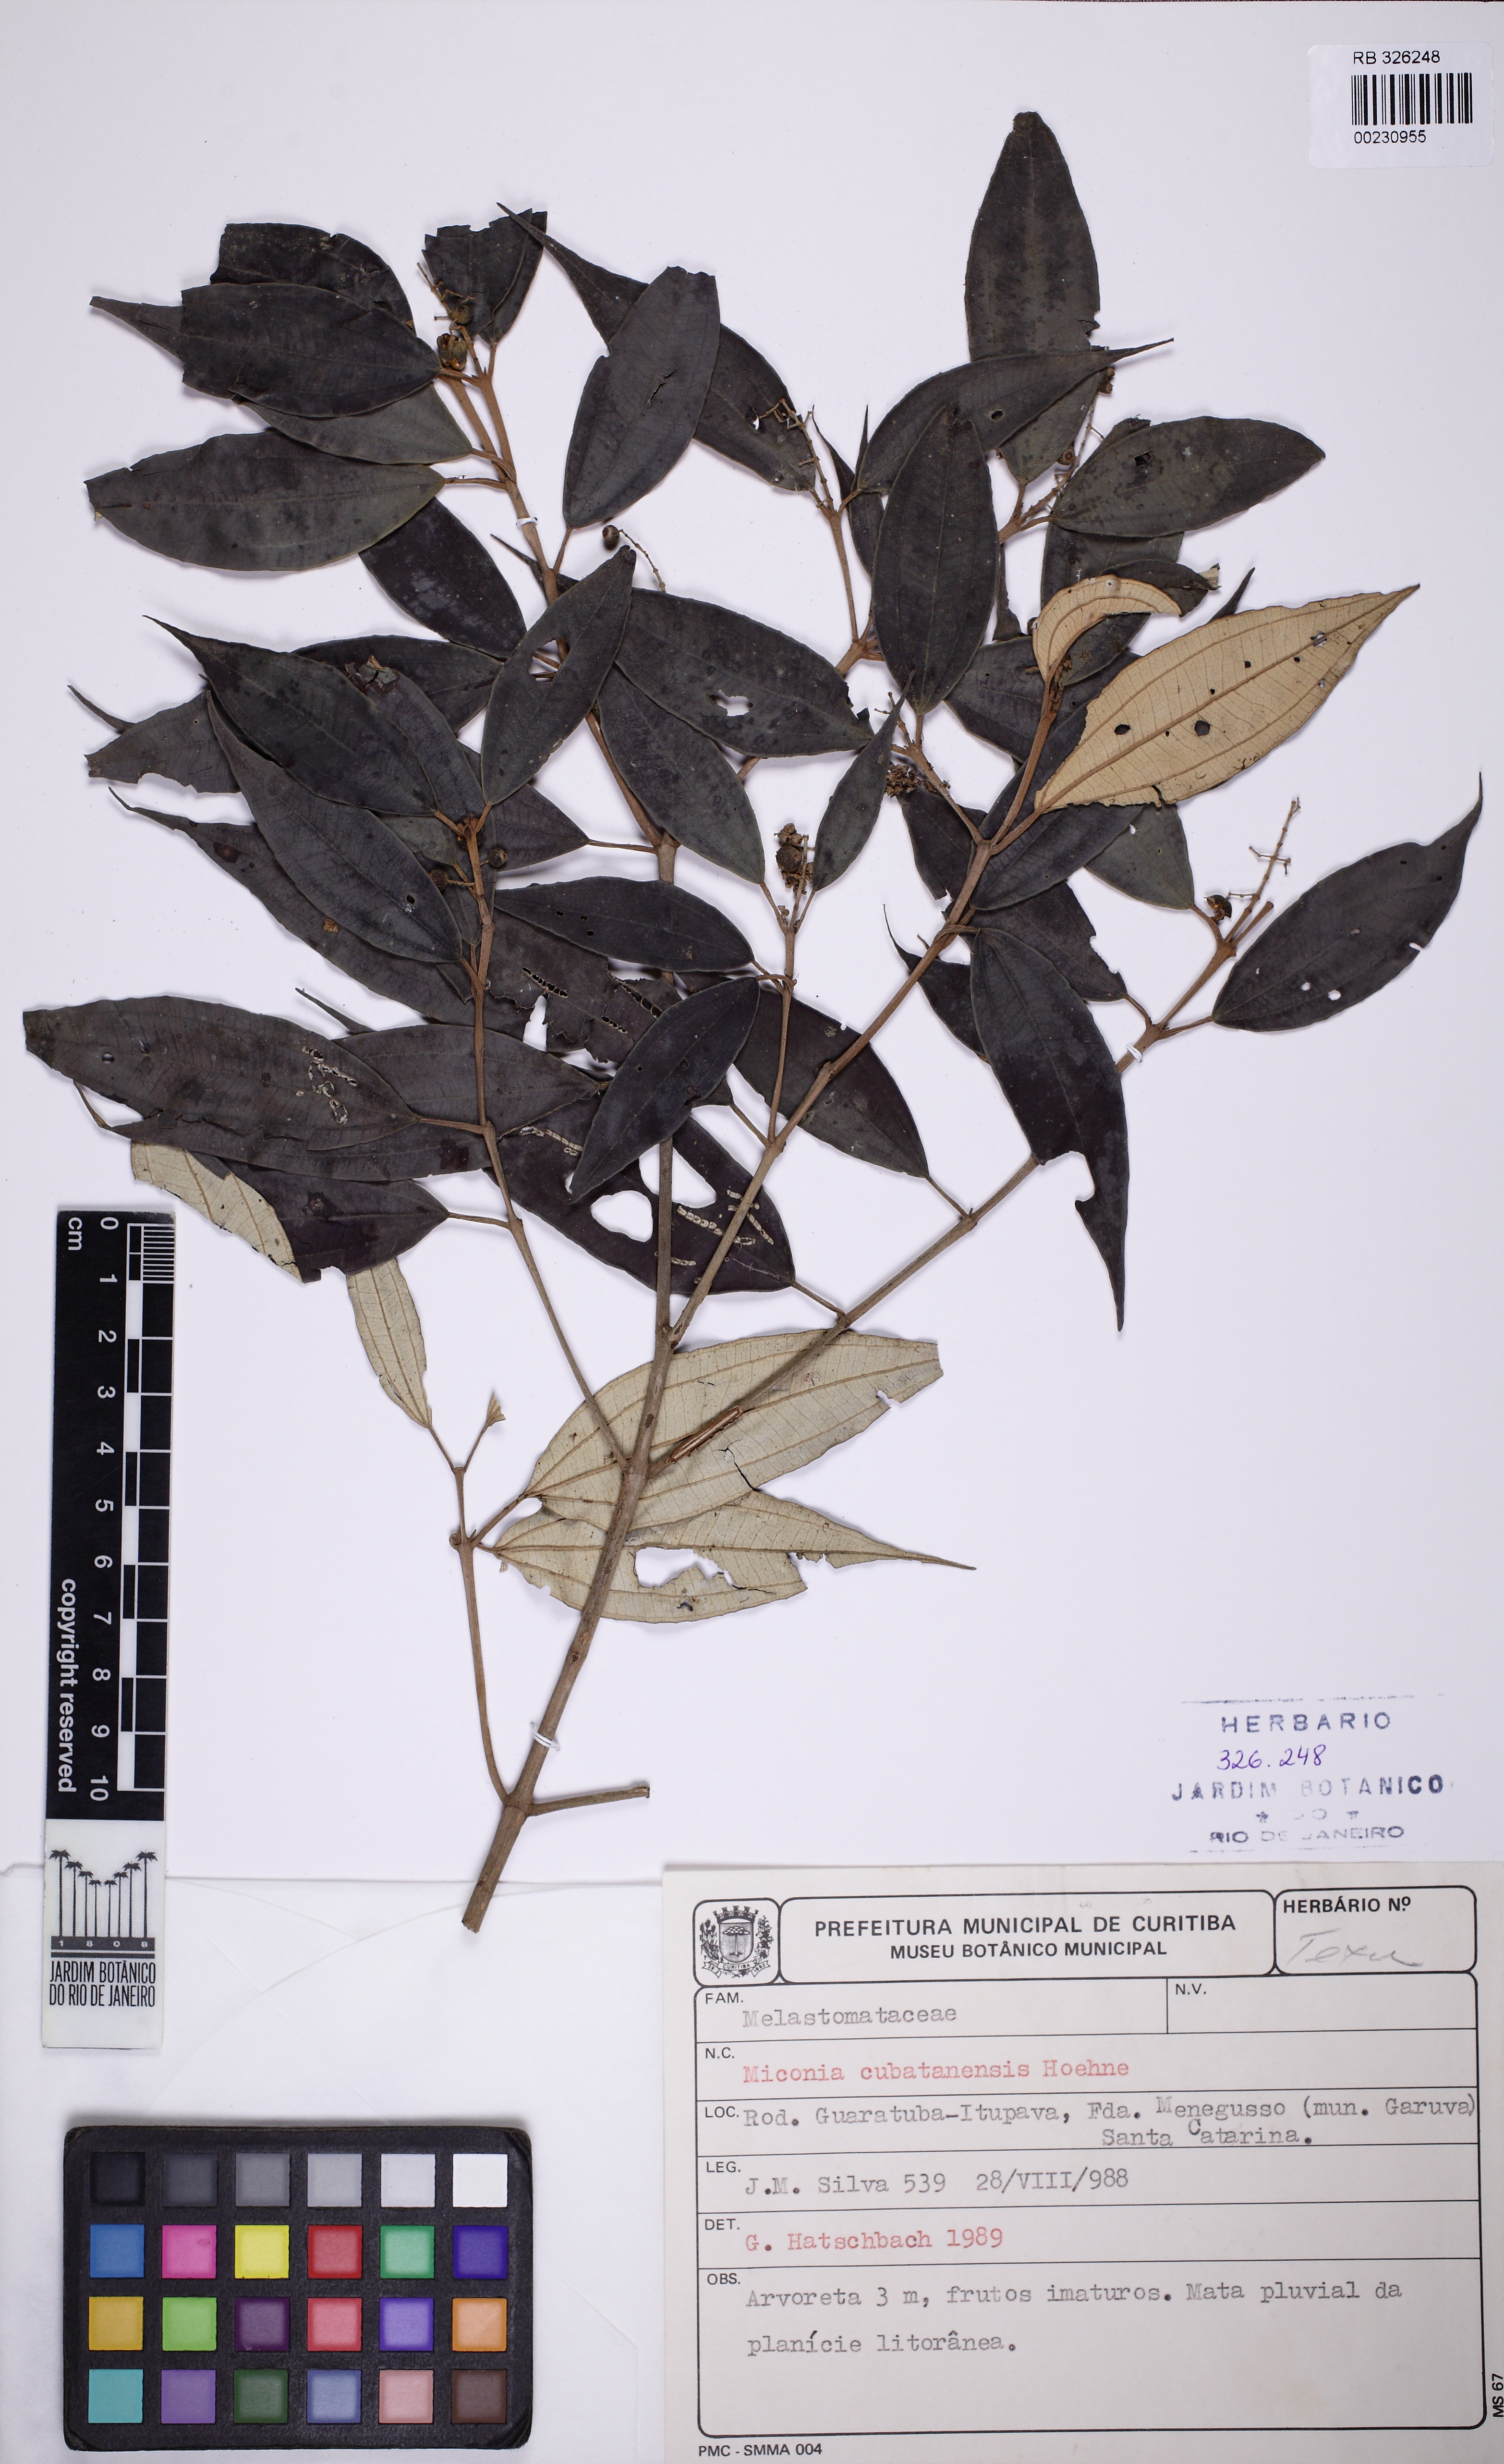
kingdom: Plantae
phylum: Tracheophyta
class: Magnoliopsida
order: Myrtales
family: Melastomataceae
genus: Miconia
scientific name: Miconia cubatanensis
